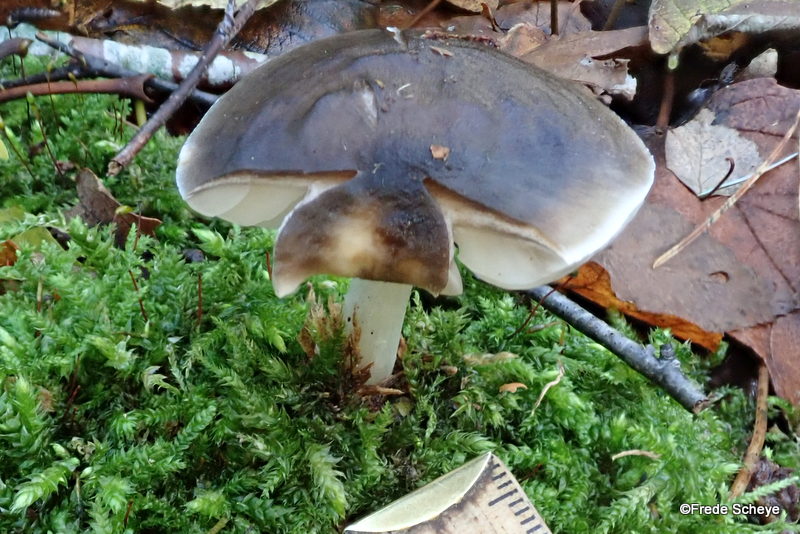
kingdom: Fungi
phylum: Basidiomycota
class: Agaricomycetes
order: Agaricales
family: Pluteaceae
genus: Pluteus
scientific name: Pluteus cervinus
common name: sodfarvet skærmhat
